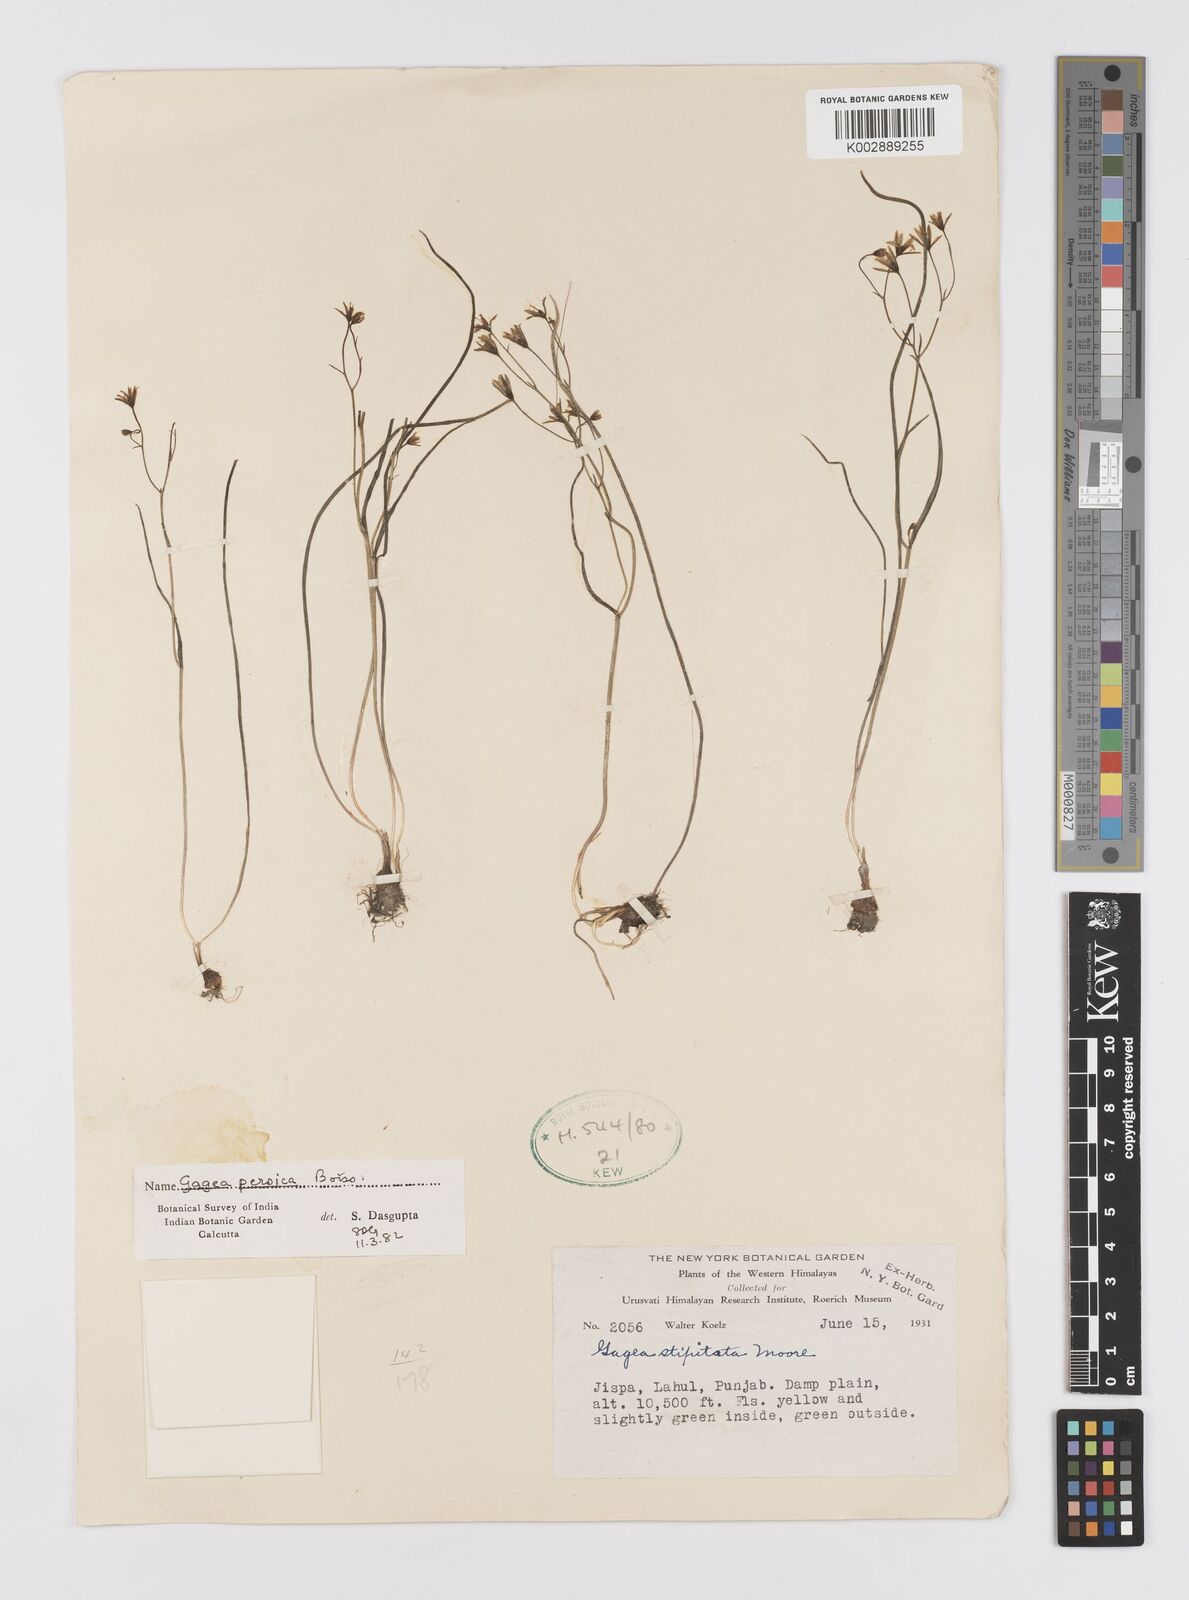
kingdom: Plantae
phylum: Tracheophyta
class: Liliopsida
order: Liliales
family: Liliaceae
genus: Gagea
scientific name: Gagea gageoides
